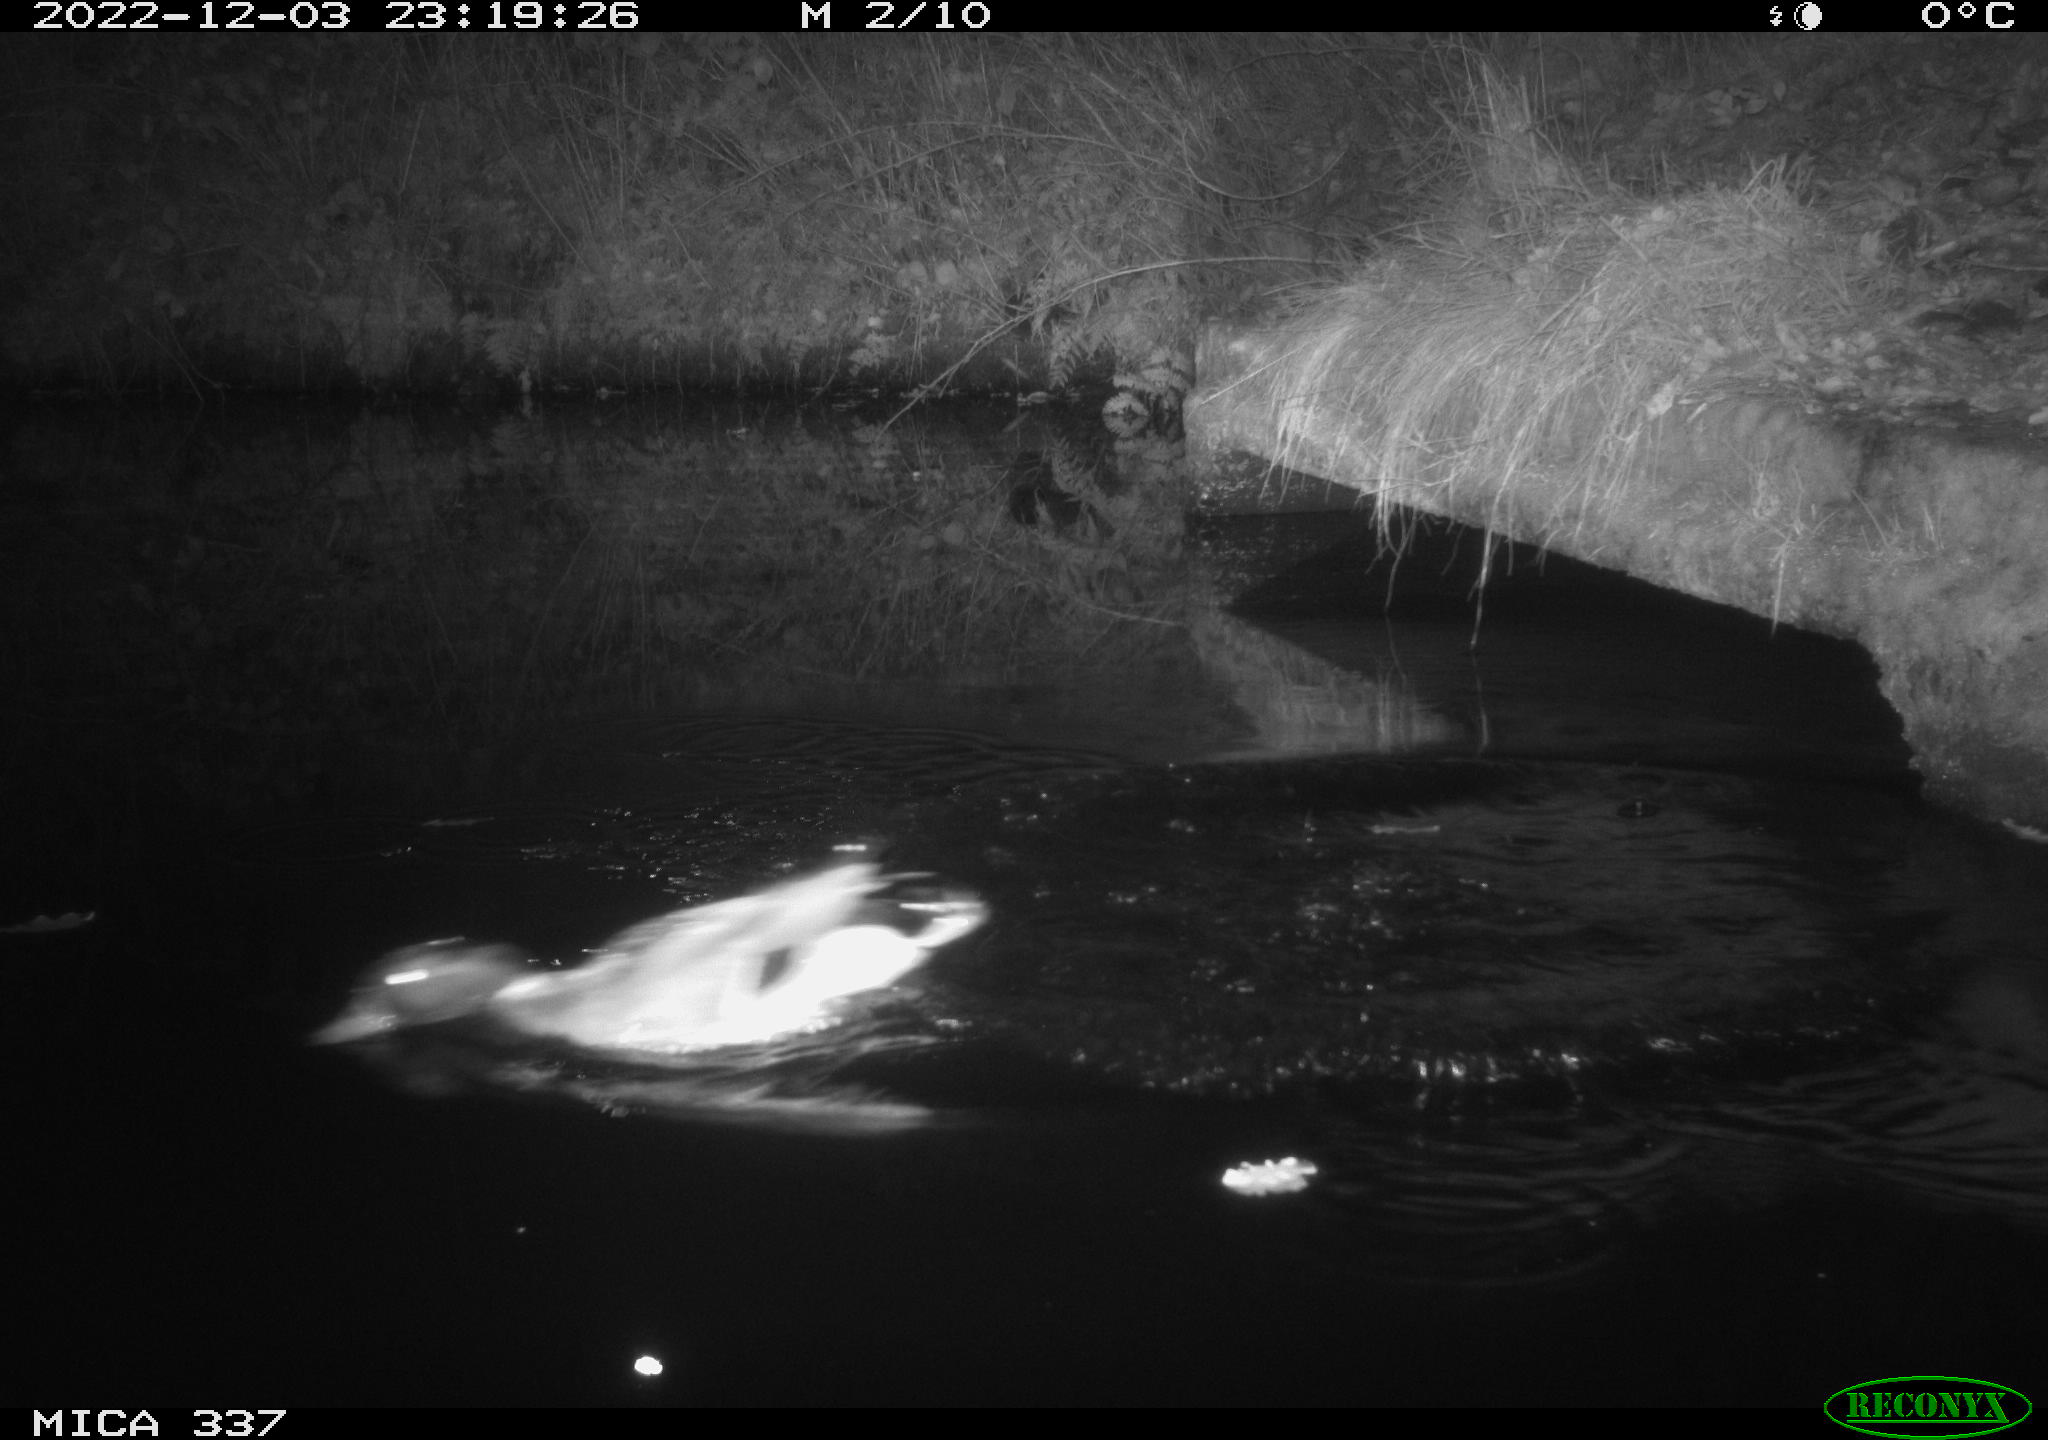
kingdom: Animalia
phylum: Chordata
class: Aves
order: Anseriformes
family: Anatidae
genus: Anas
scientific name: Anas
